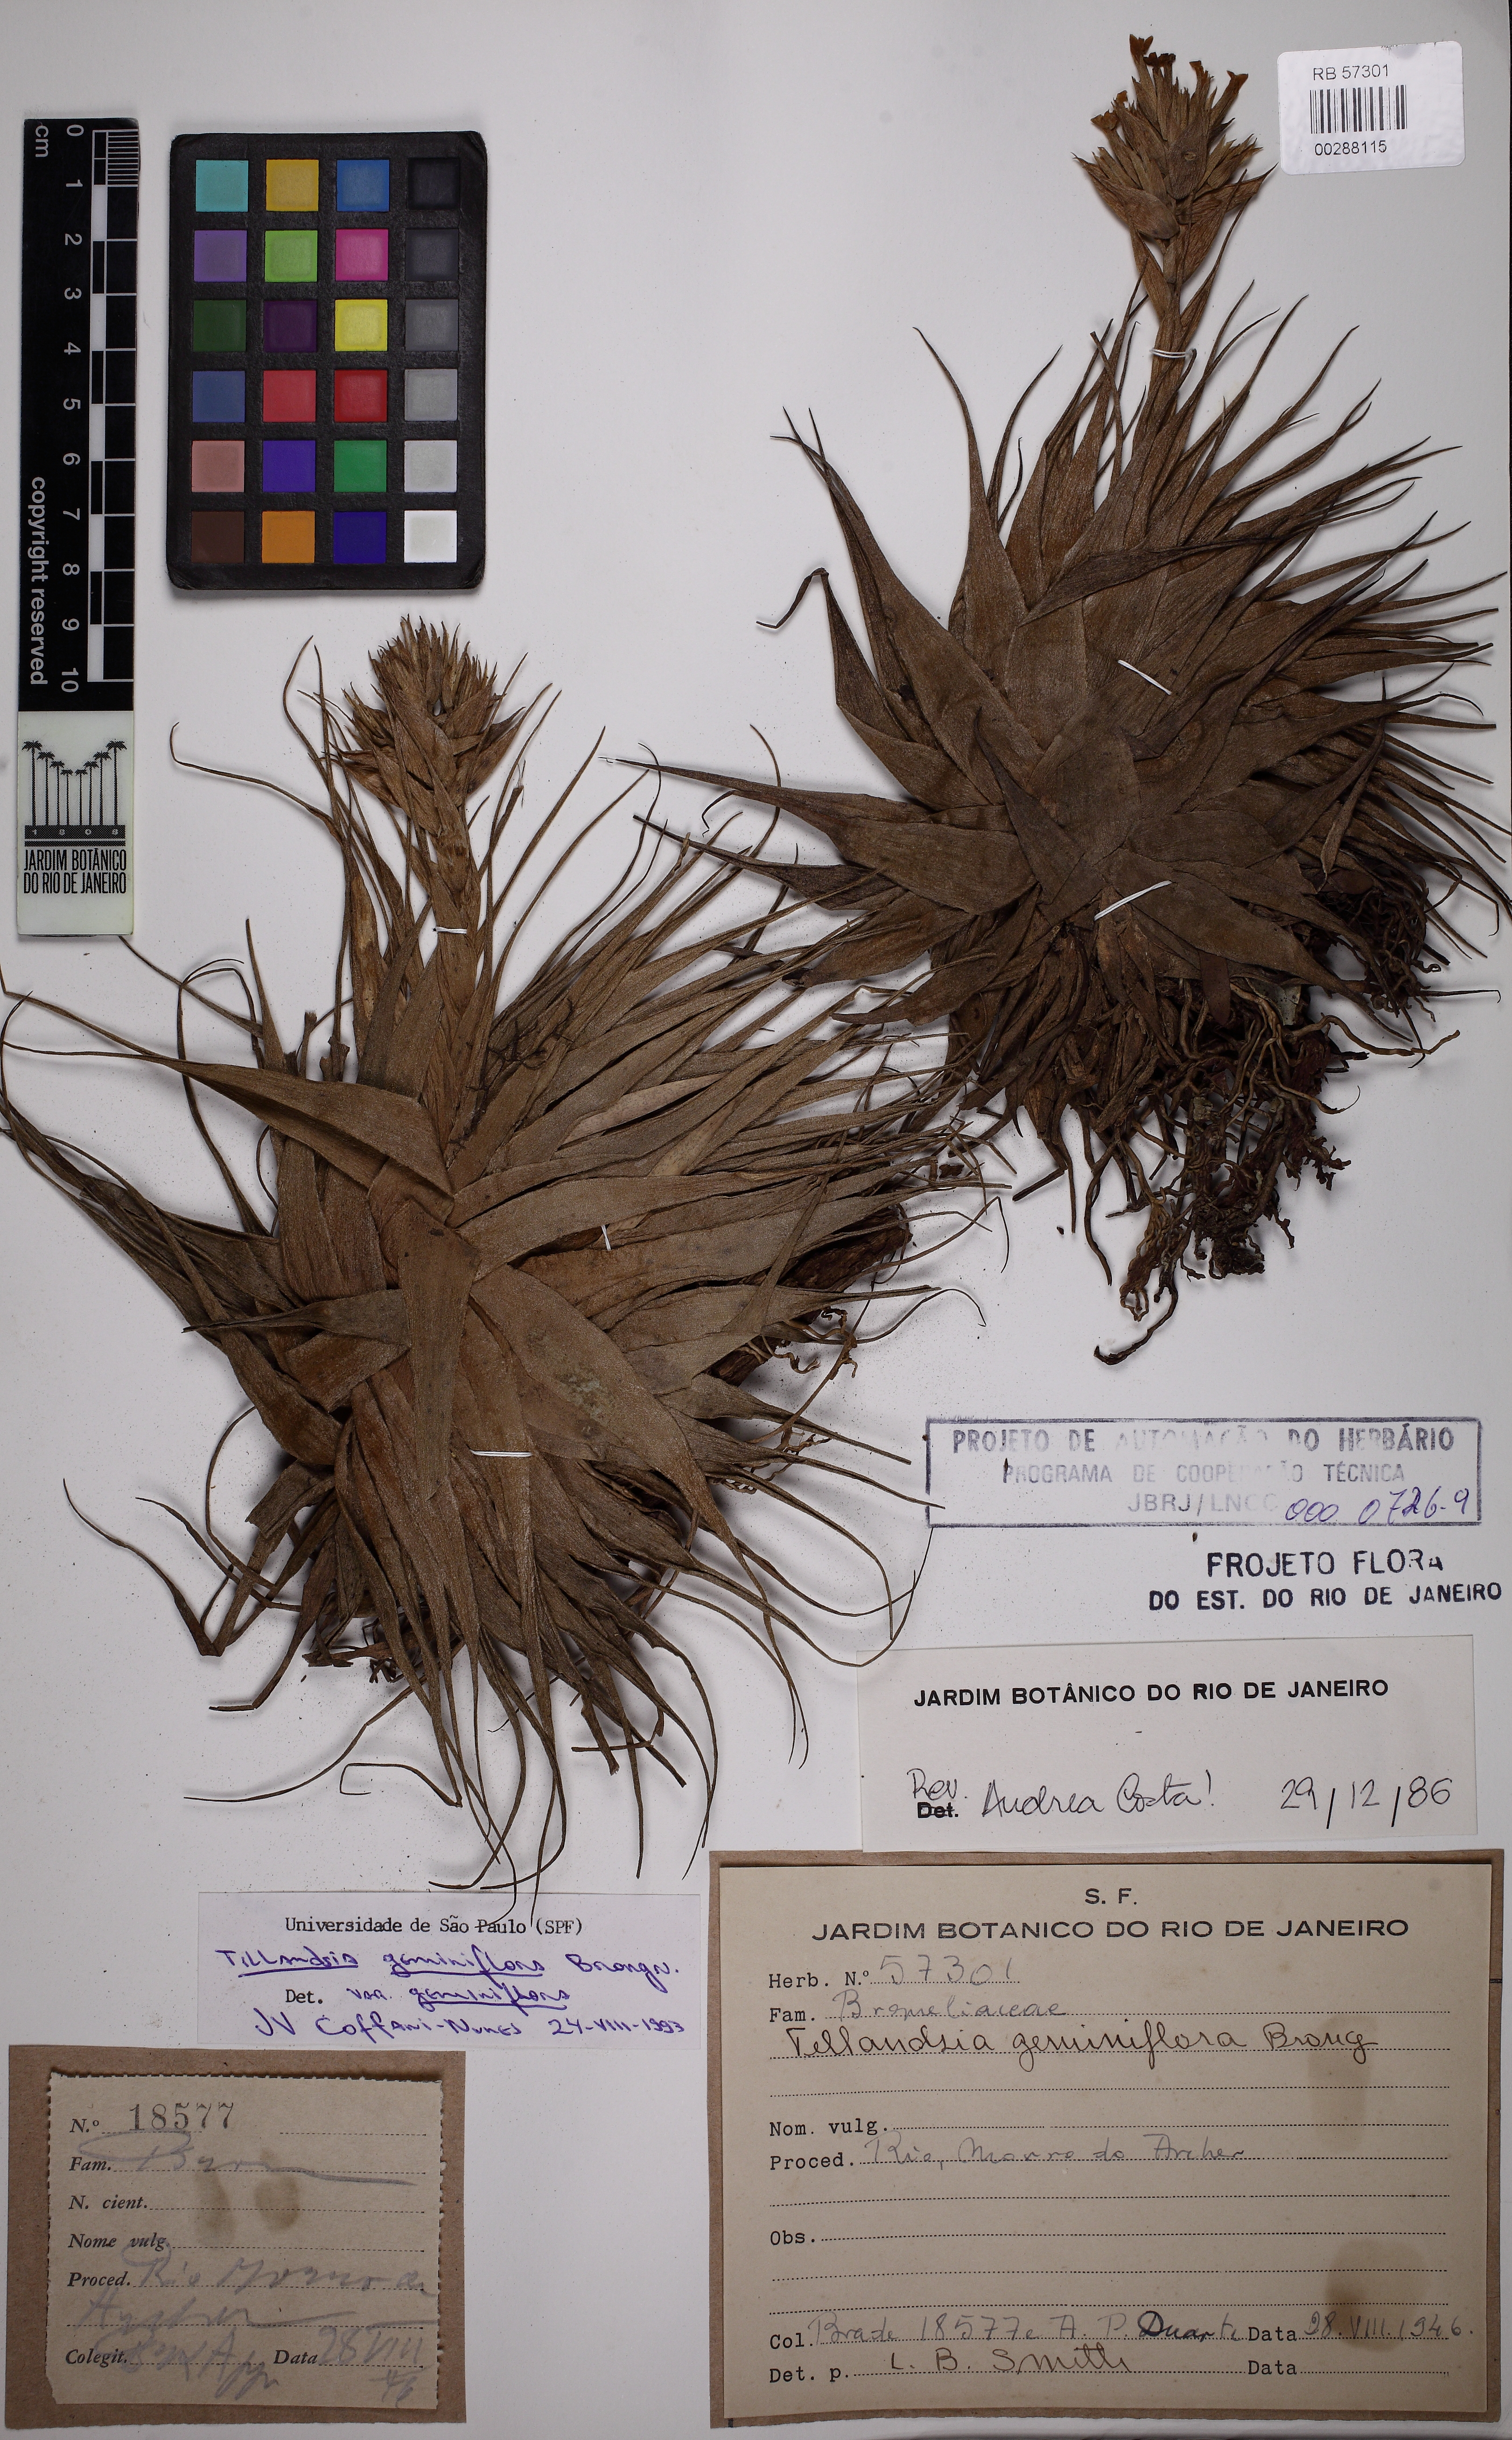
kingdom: Plantae
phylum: Tracheophyta
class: Liliopsida
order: Poales
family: Bromeliaceae
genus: Tillandsia
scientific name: Tillandsia geminiflora
